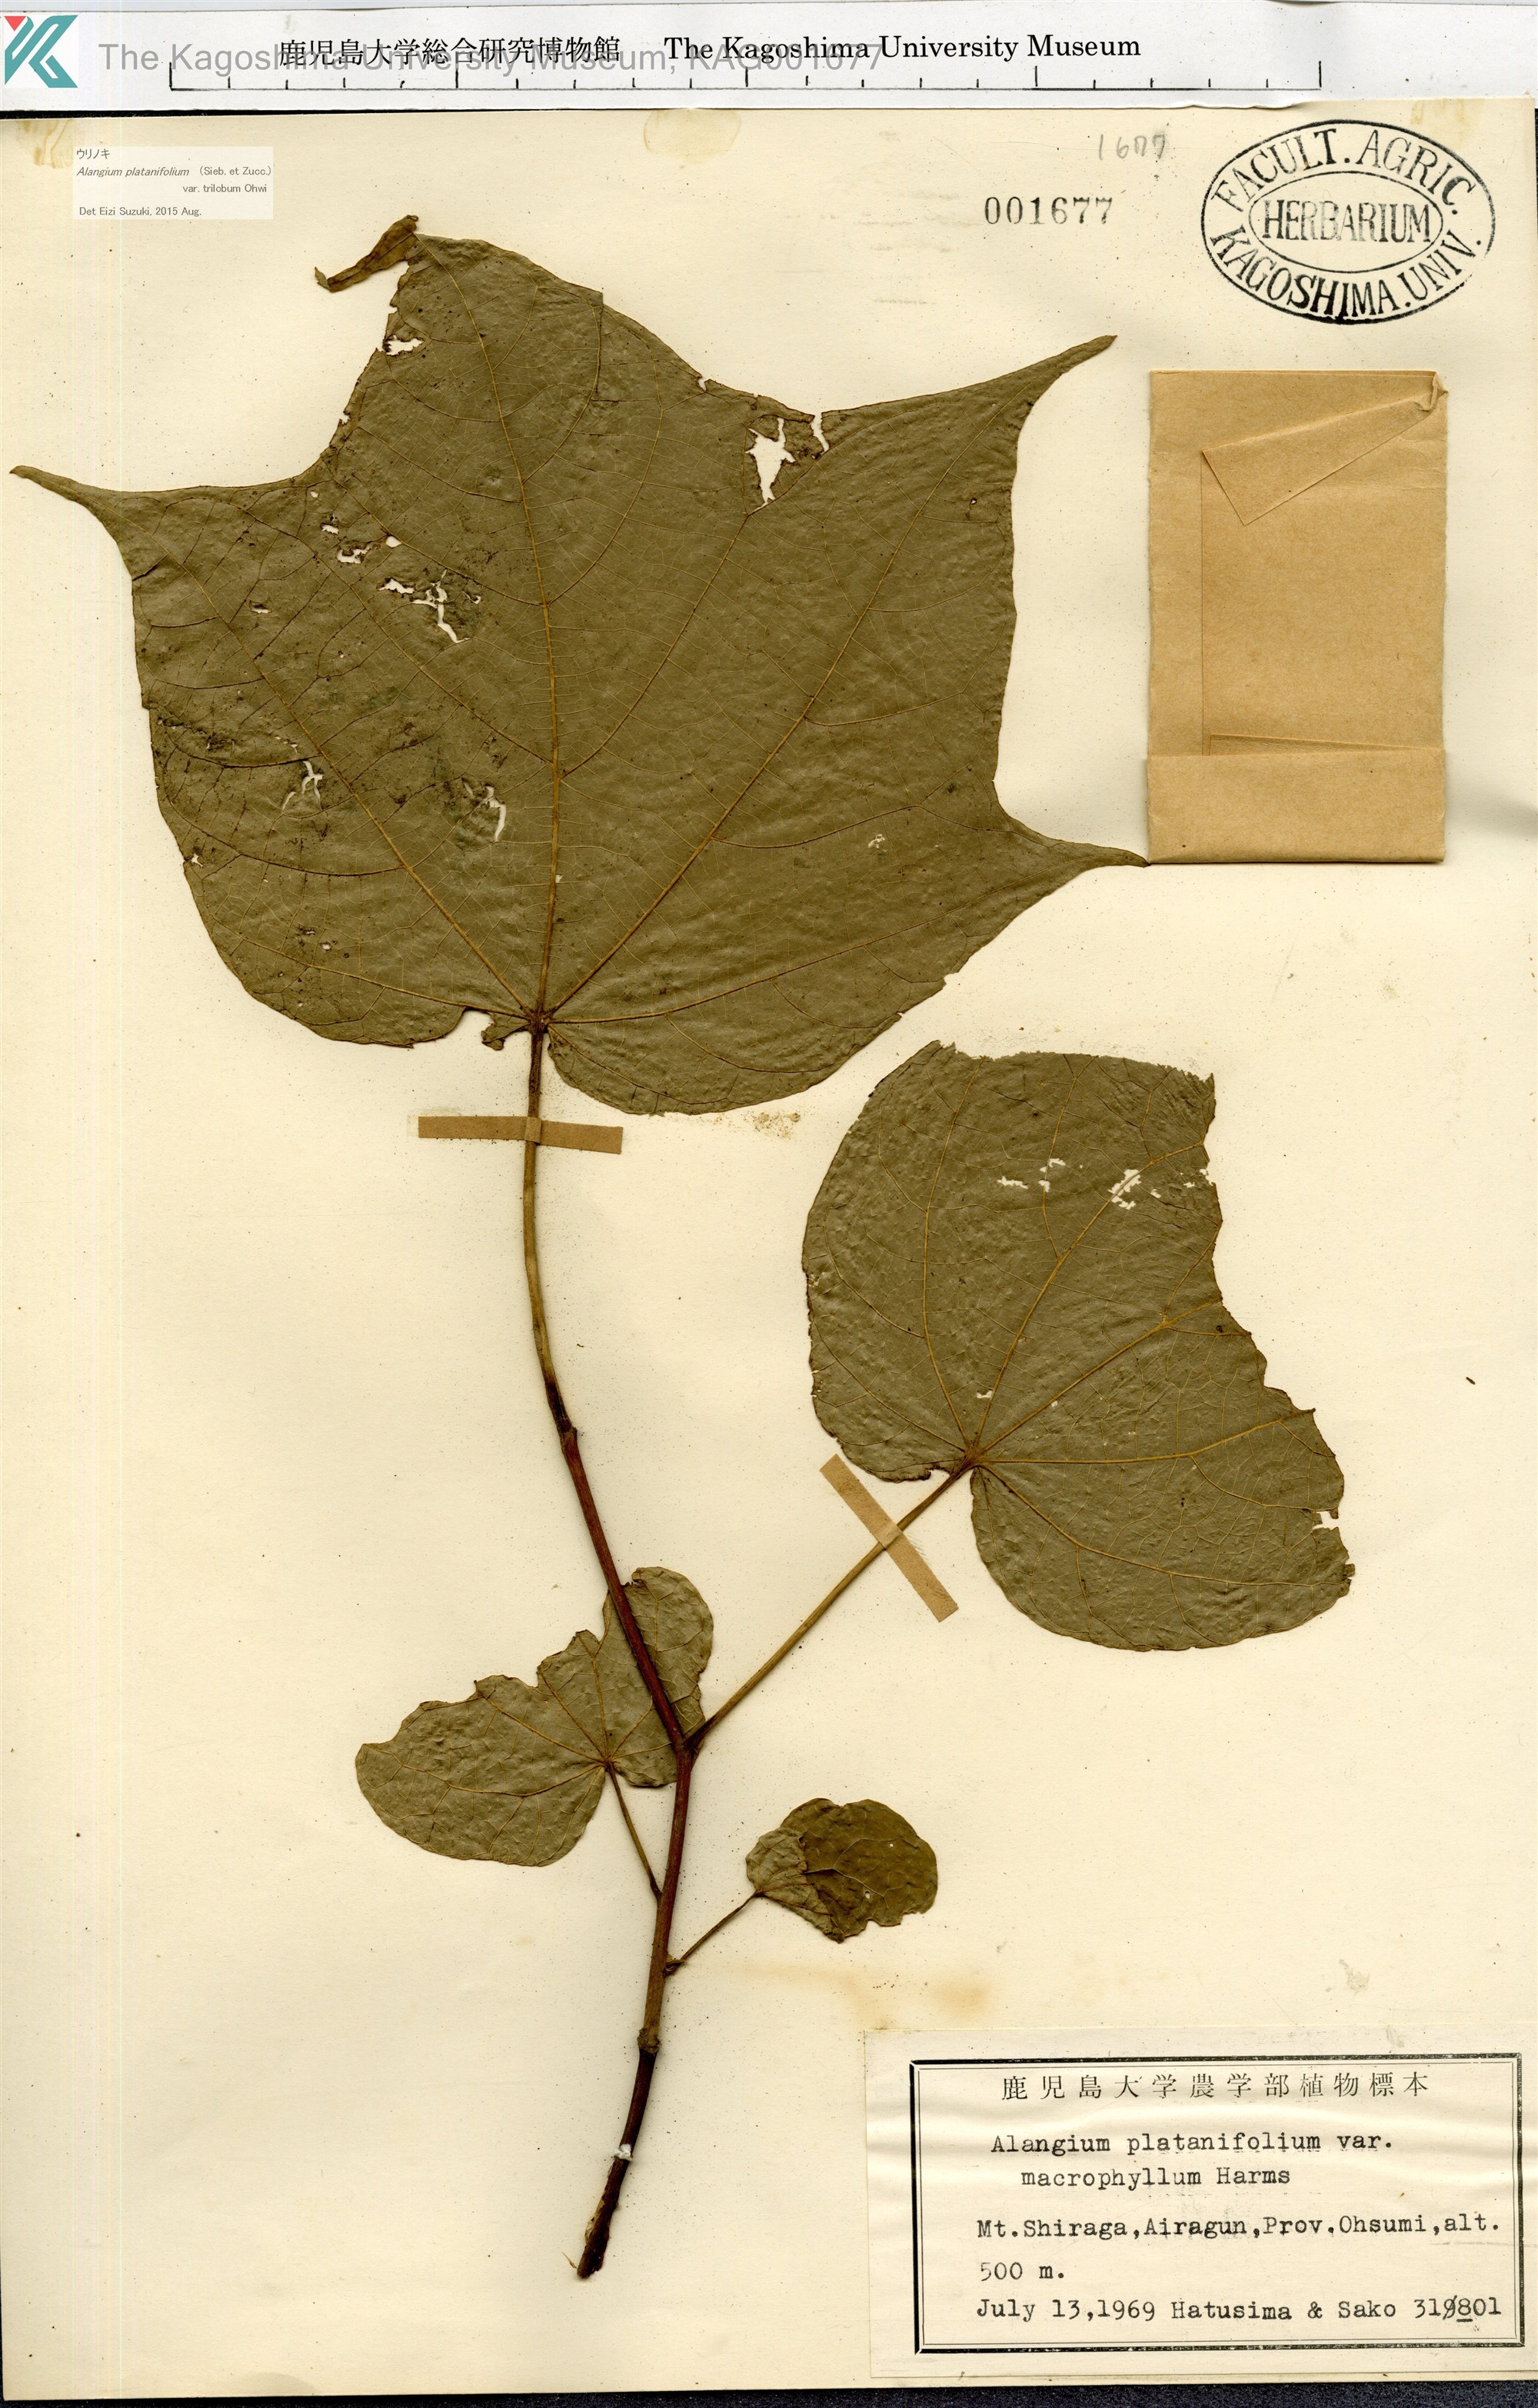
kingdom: Plantae
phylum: Tracheophyta
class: Magnoliopsida
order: Cornales
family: Cornaceae
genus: Alangium
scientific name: Alangium platanifolium
